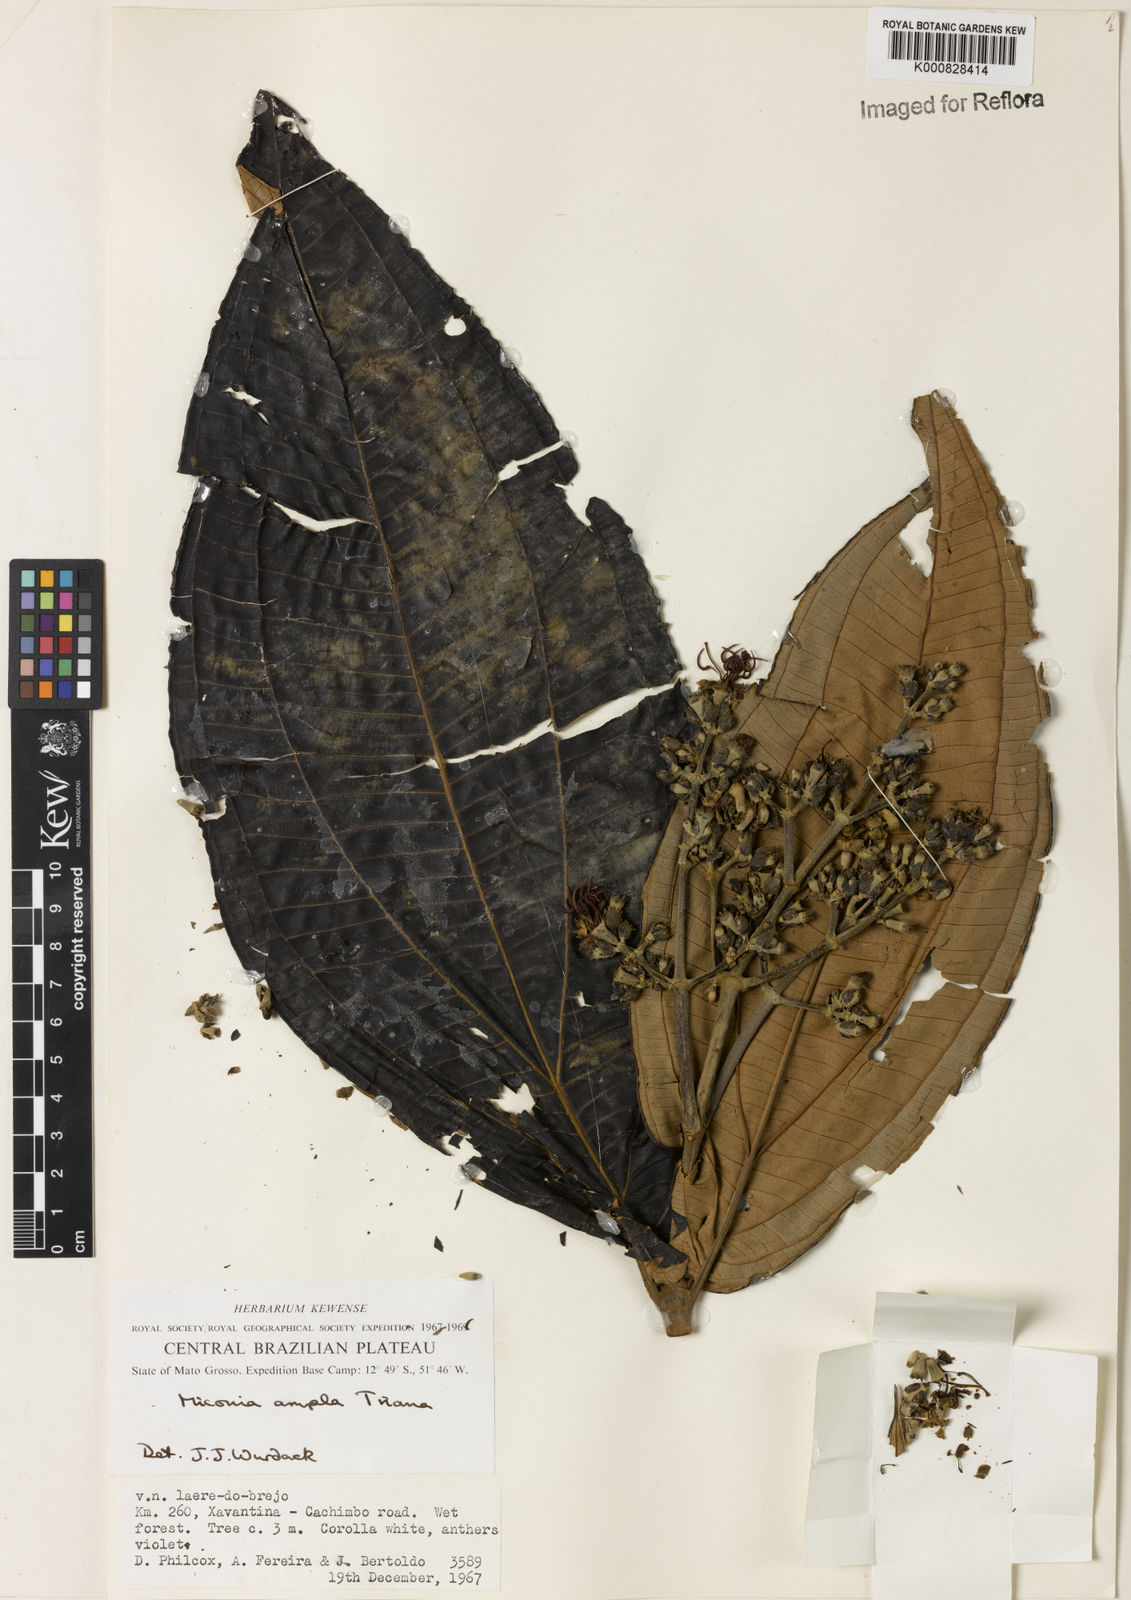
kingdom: Plantae
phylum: Tracheophyta
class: Magnoliopsida
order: Myrtales
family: Melastomataceae
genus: Miconia
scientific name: Miconia ampla
